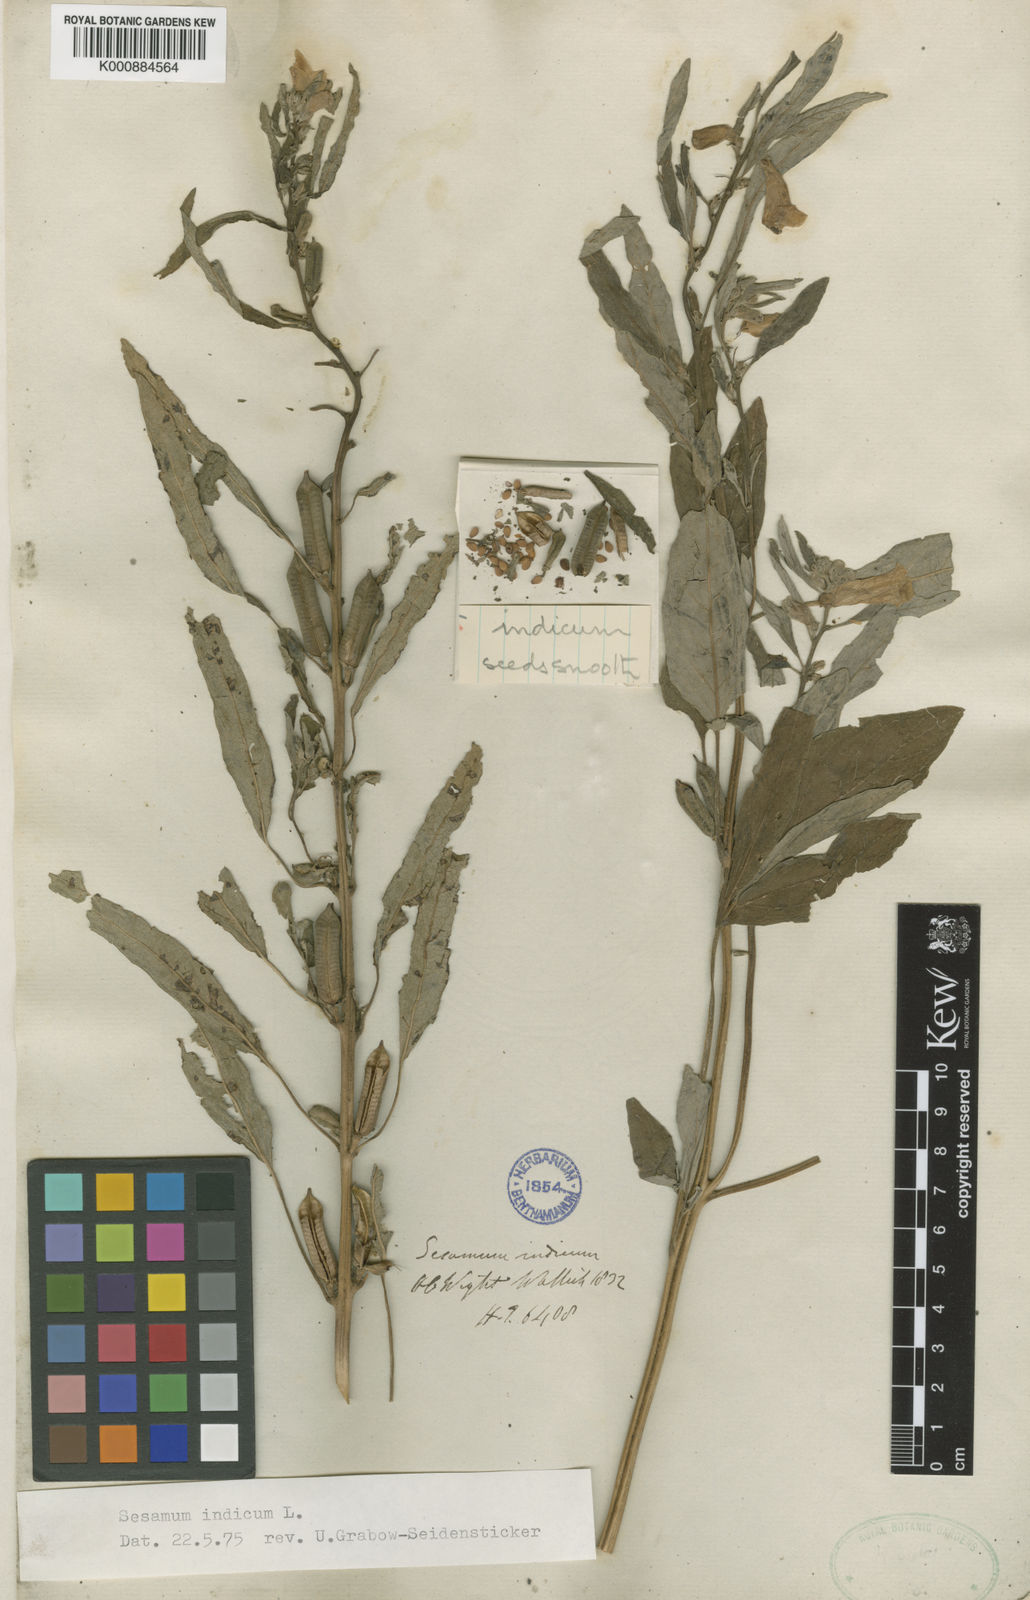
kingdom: Plantae
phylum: Tracheophyta
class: Magnoliopsida
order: Lamiales
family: Pedaliaceae
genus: Sesamum
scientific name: Sesamum indicum
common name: Sesame
